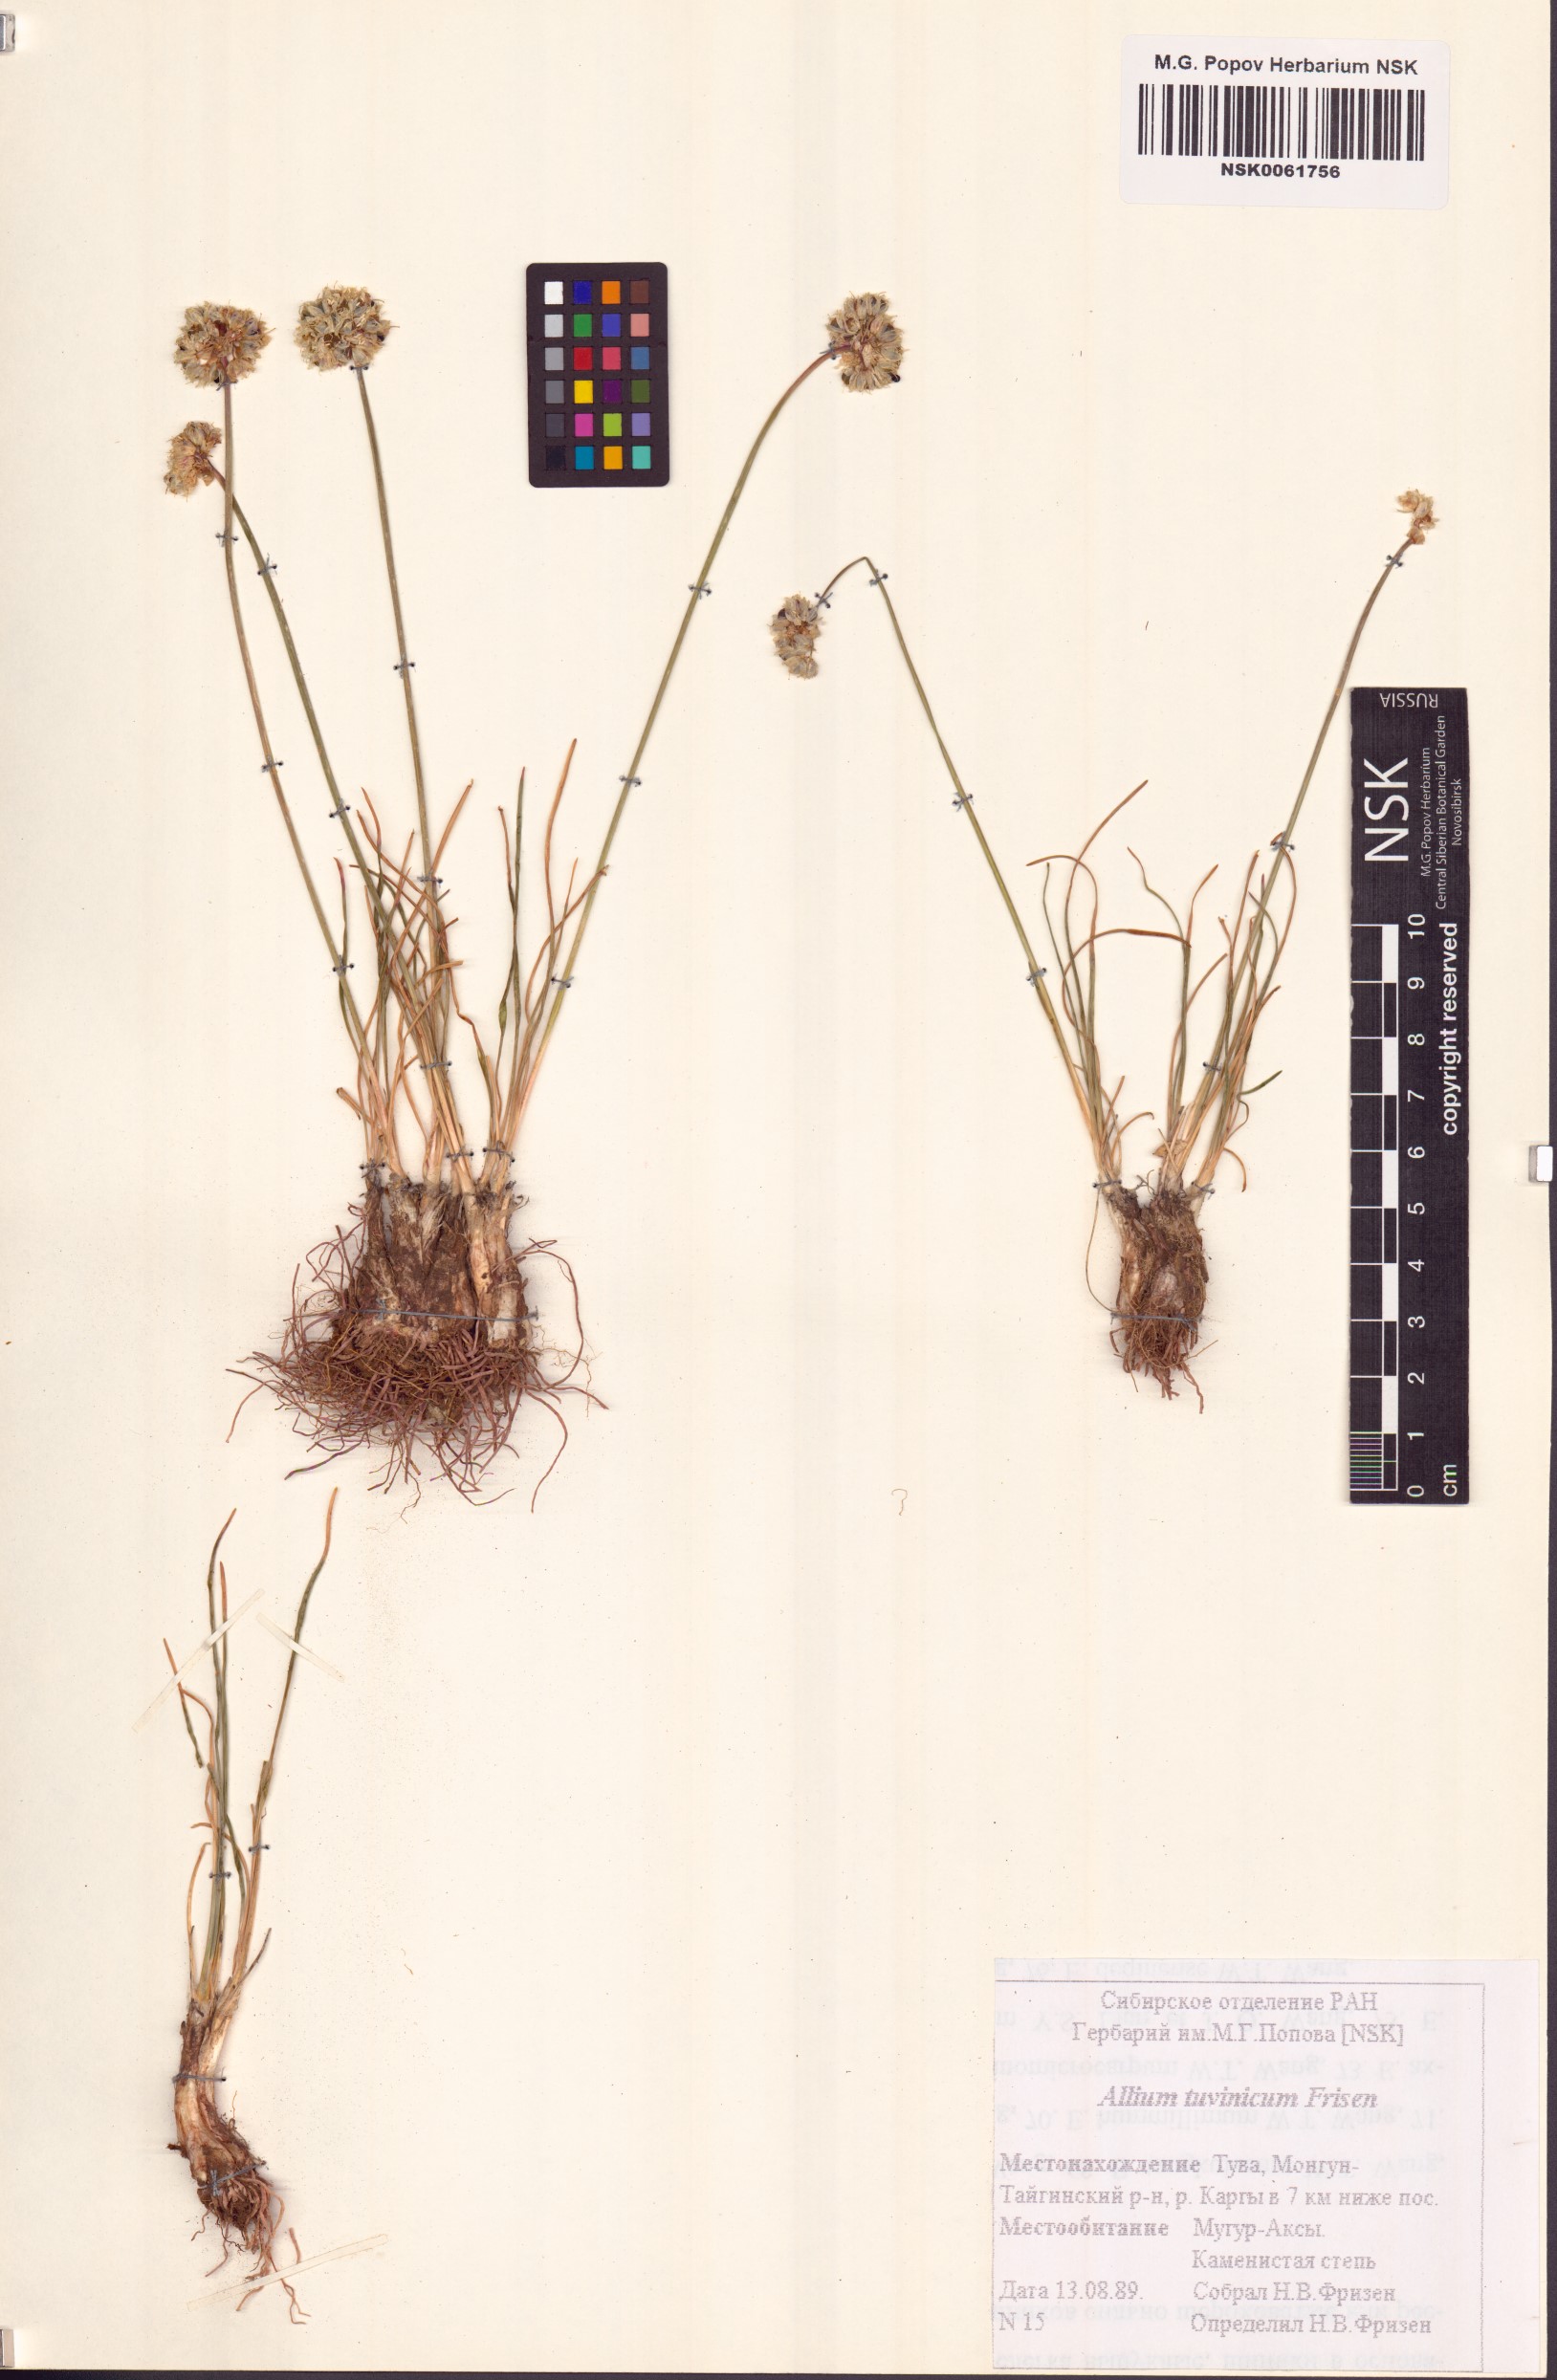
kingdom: Plantae
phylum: Tracheophyta
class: Liliopsida
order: Asparagales
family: Amaryllidaceae
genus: Allium
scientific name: Allium tuvinicum
